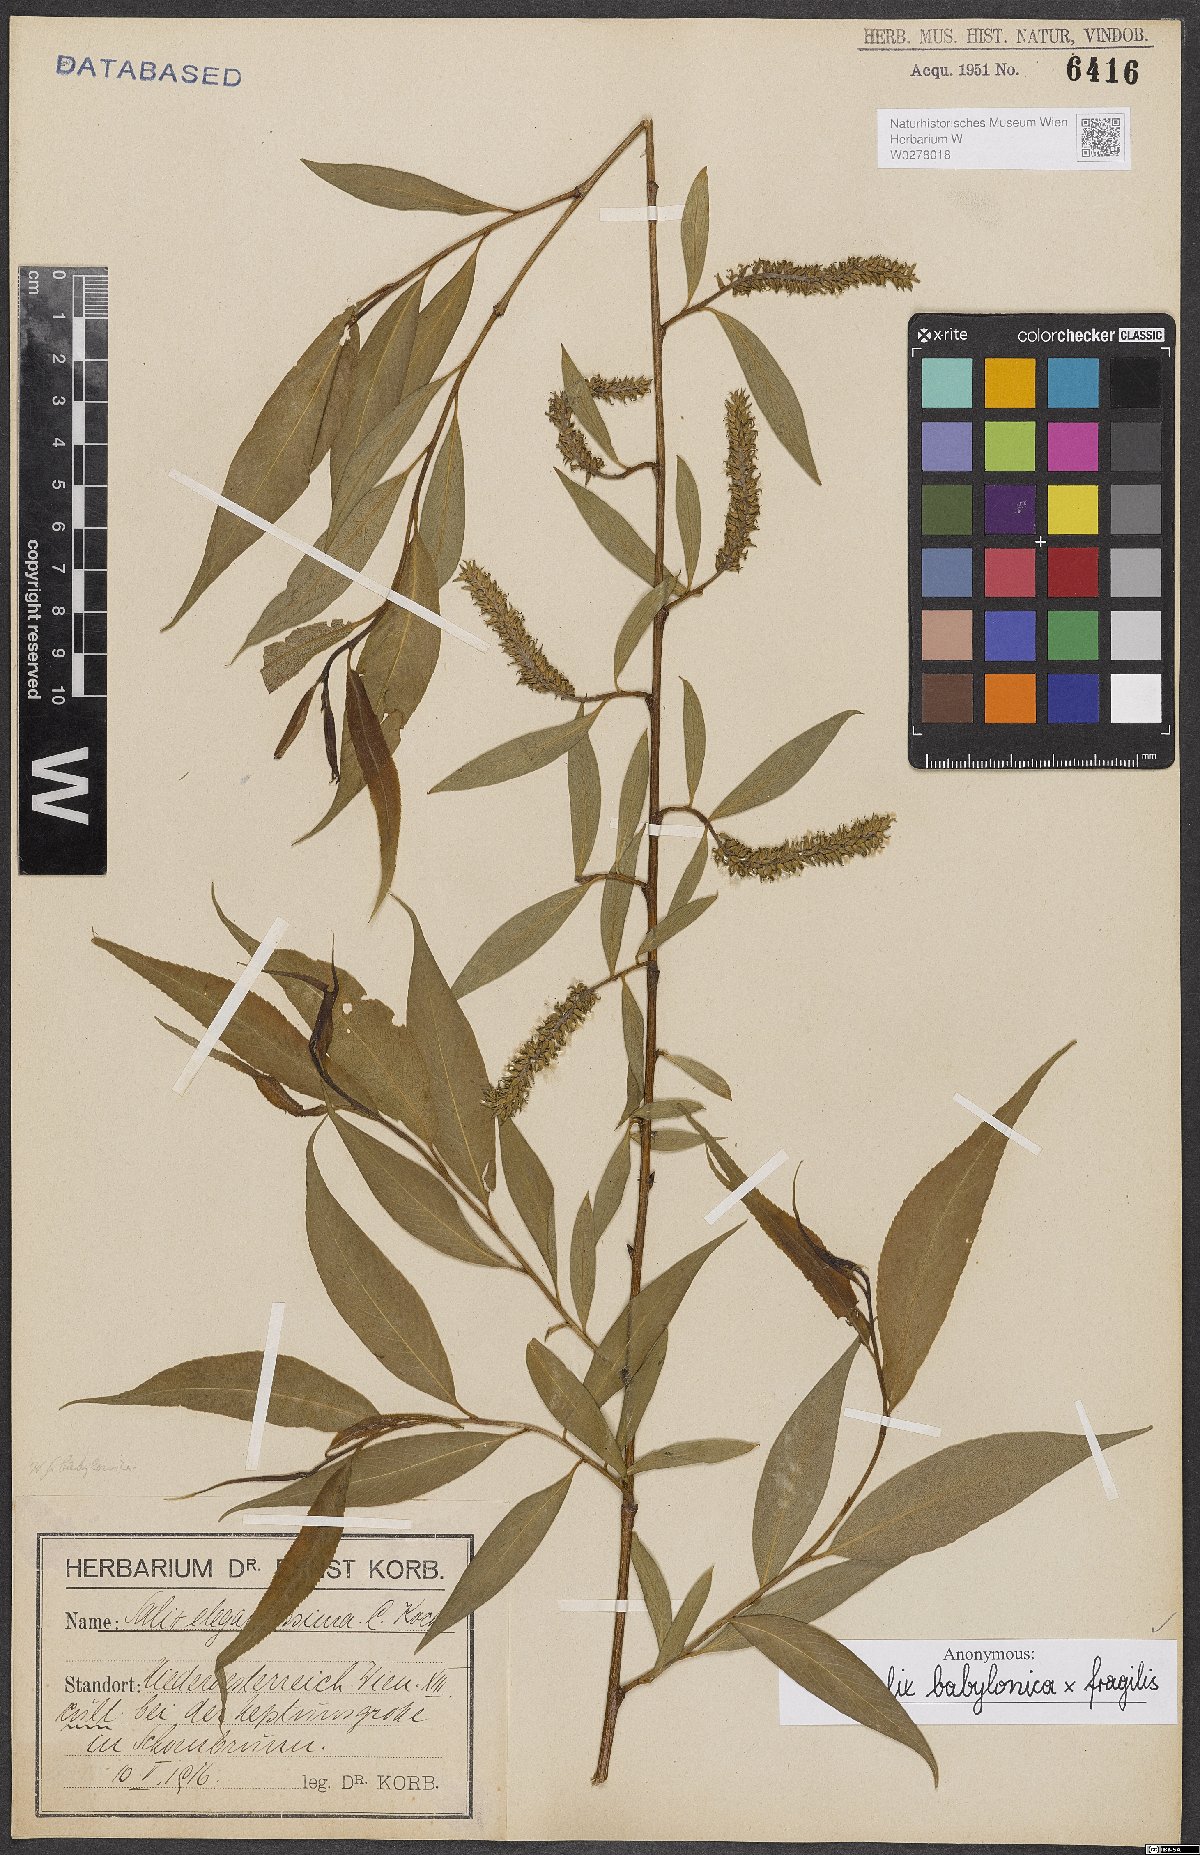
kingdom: Plantae
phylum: Tracheophyta
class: Magnoliopsida
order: Malpighiales
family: Salicaceae
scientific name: Salicaceae
